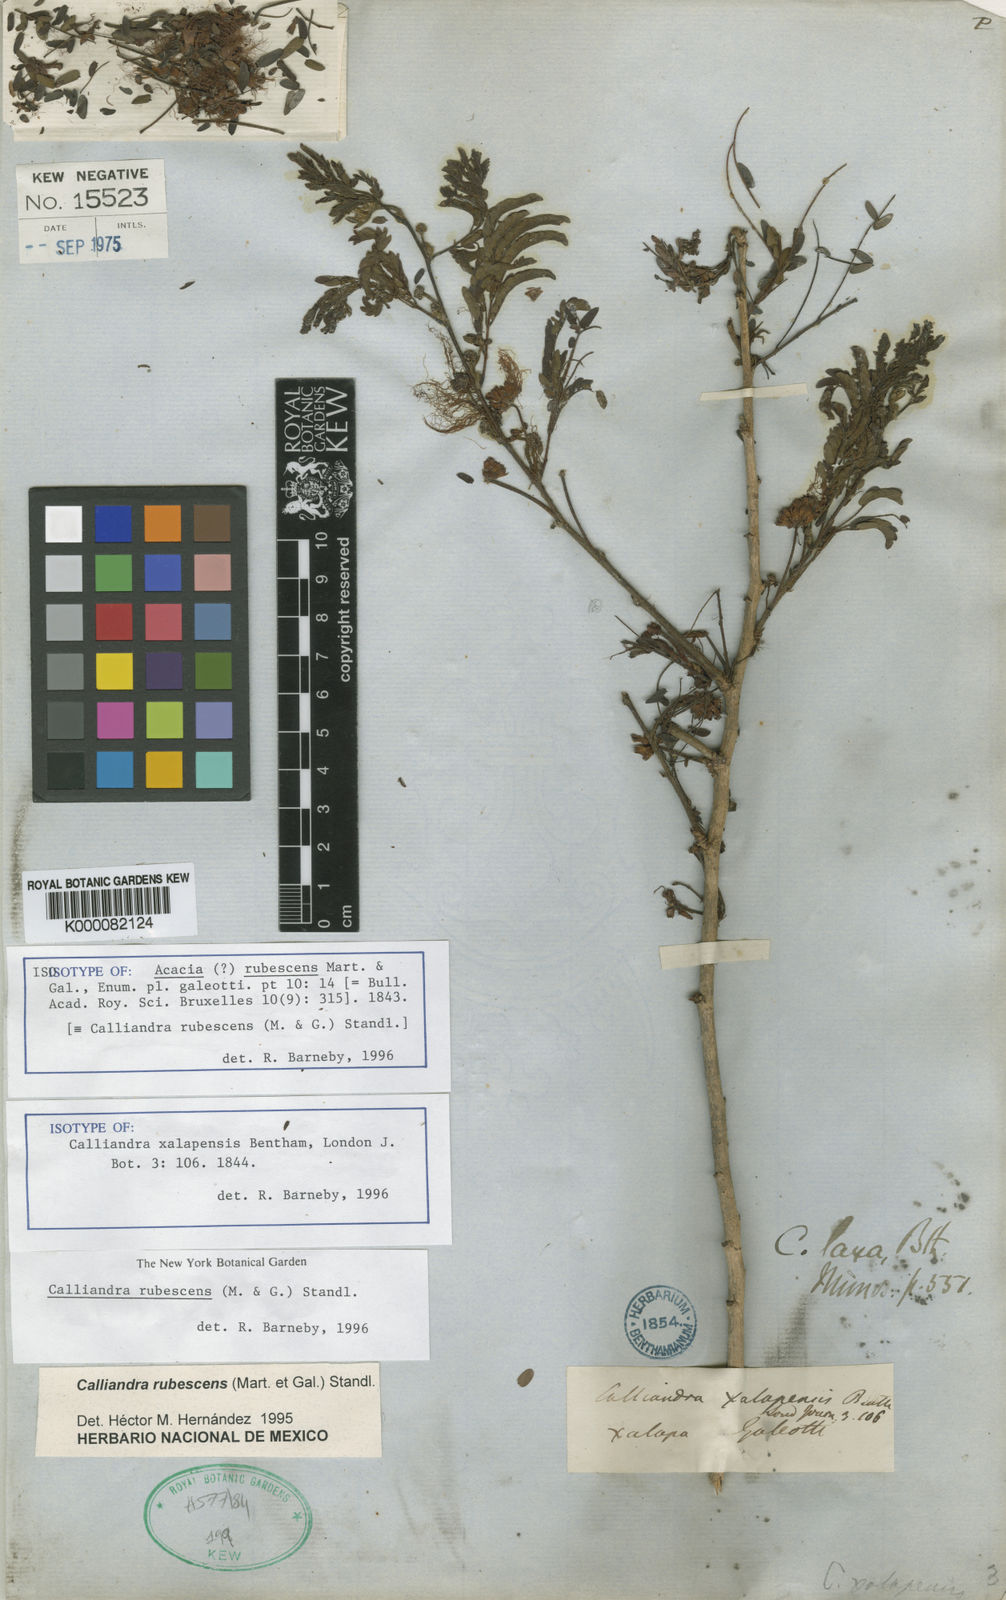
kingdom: Plantae
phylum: Tracheophyta
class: Magnoliopsida
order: Fabales
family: Fabaceae
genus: Calliandra
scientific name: Calliandra rubescens
